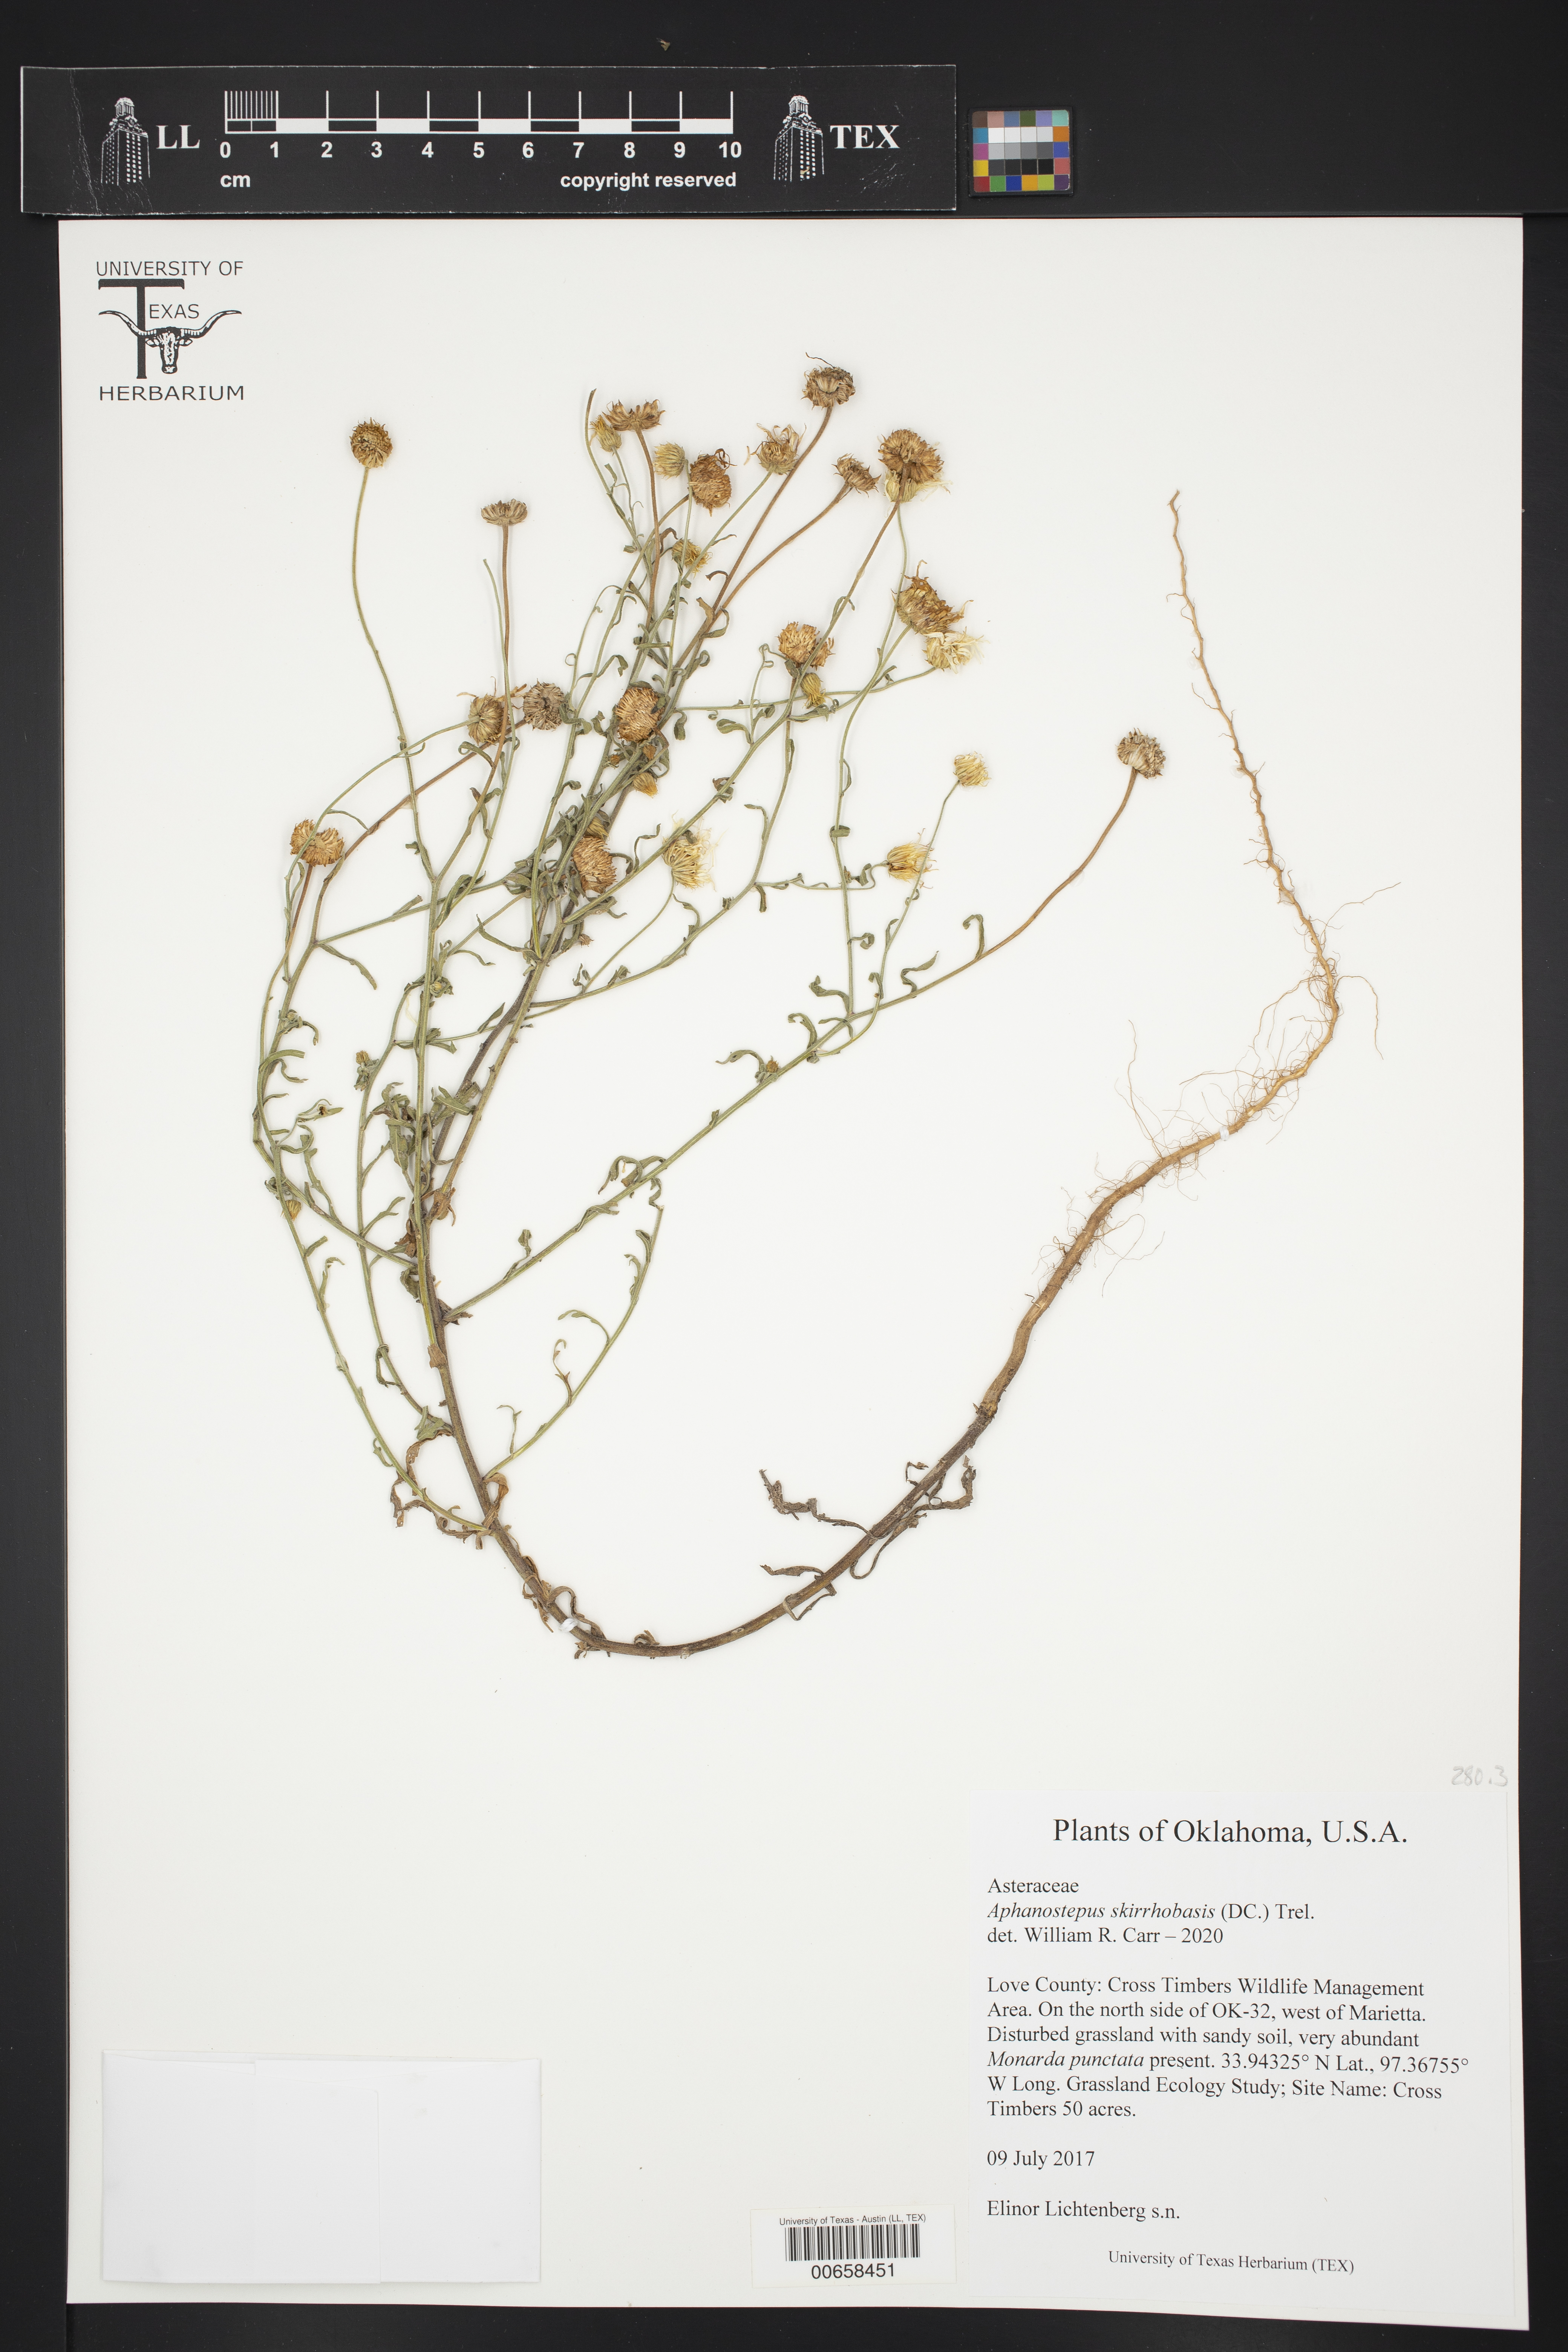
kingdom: Plantae
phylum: Tracheophyta
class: Magnoliopsida
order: Asterales
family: Asteraceae
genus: Aphanostephus
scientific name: Aphanostephus skirrhobasis
